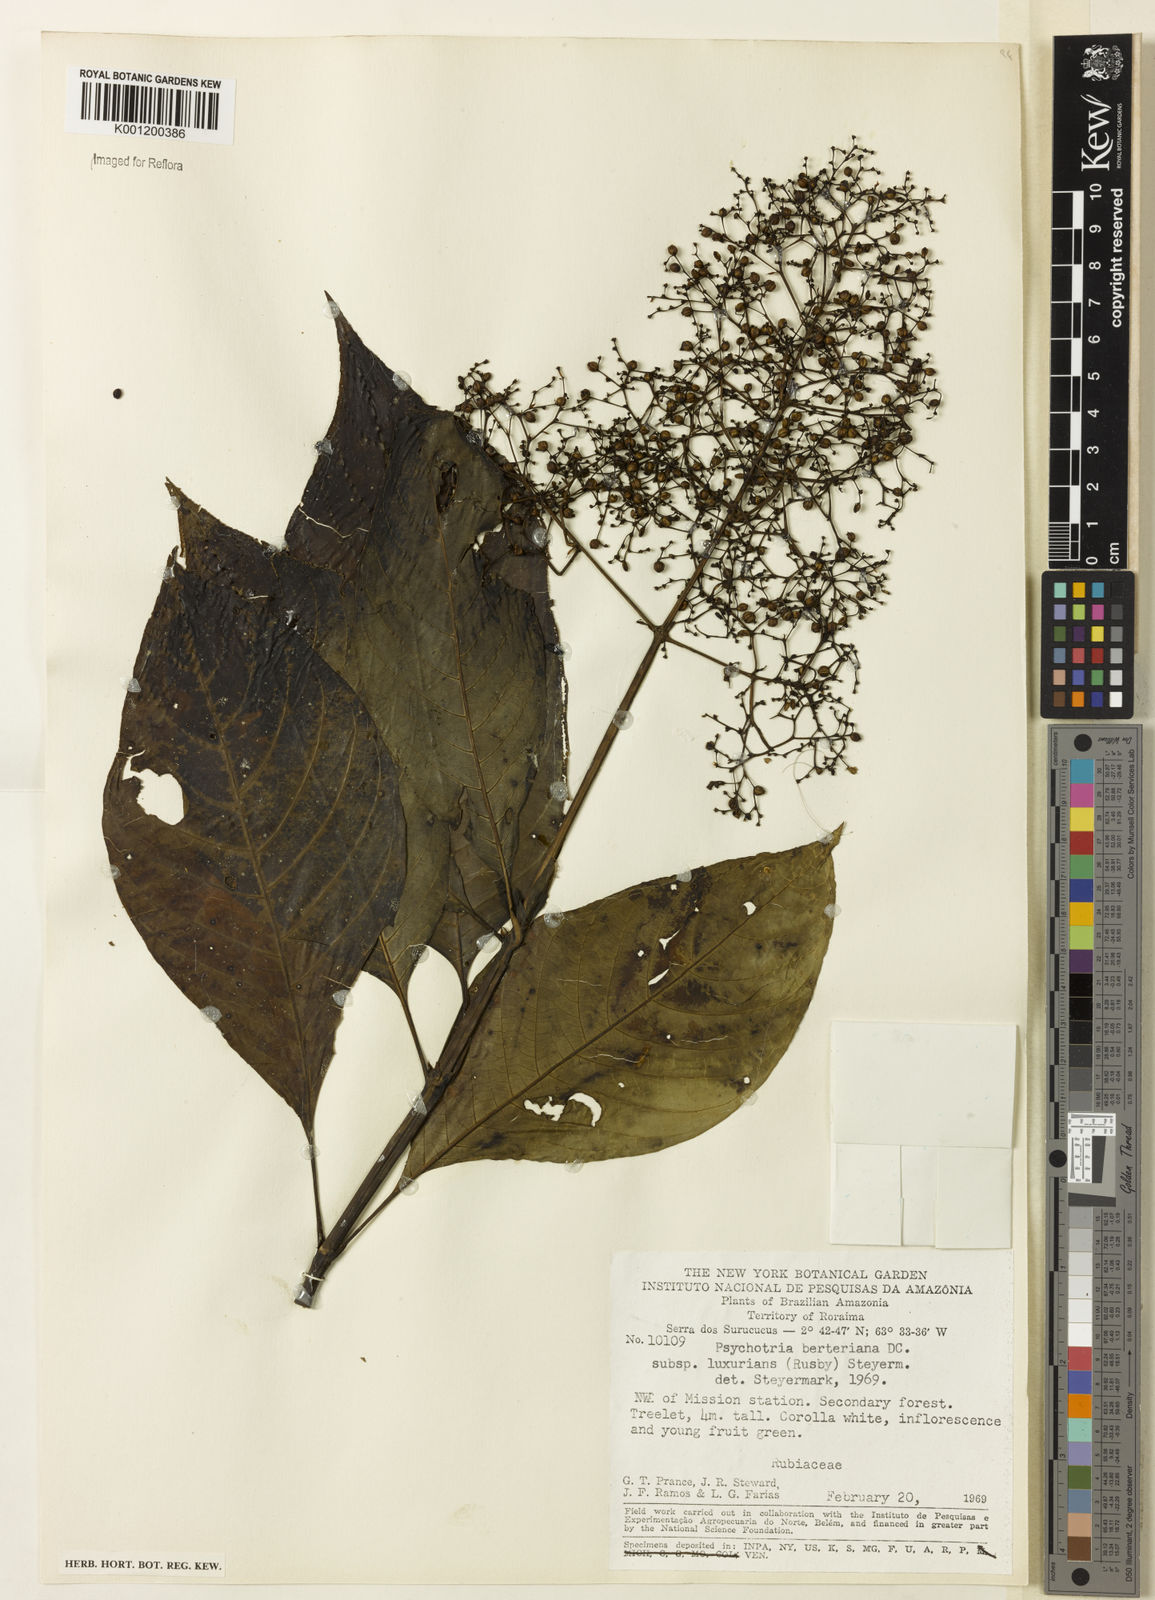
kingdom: Plantae
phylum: Tracheophyta
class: Magnoliopsida
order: Gentianales
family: Rubiaceae
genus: Psychotria
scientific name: Psychotria
